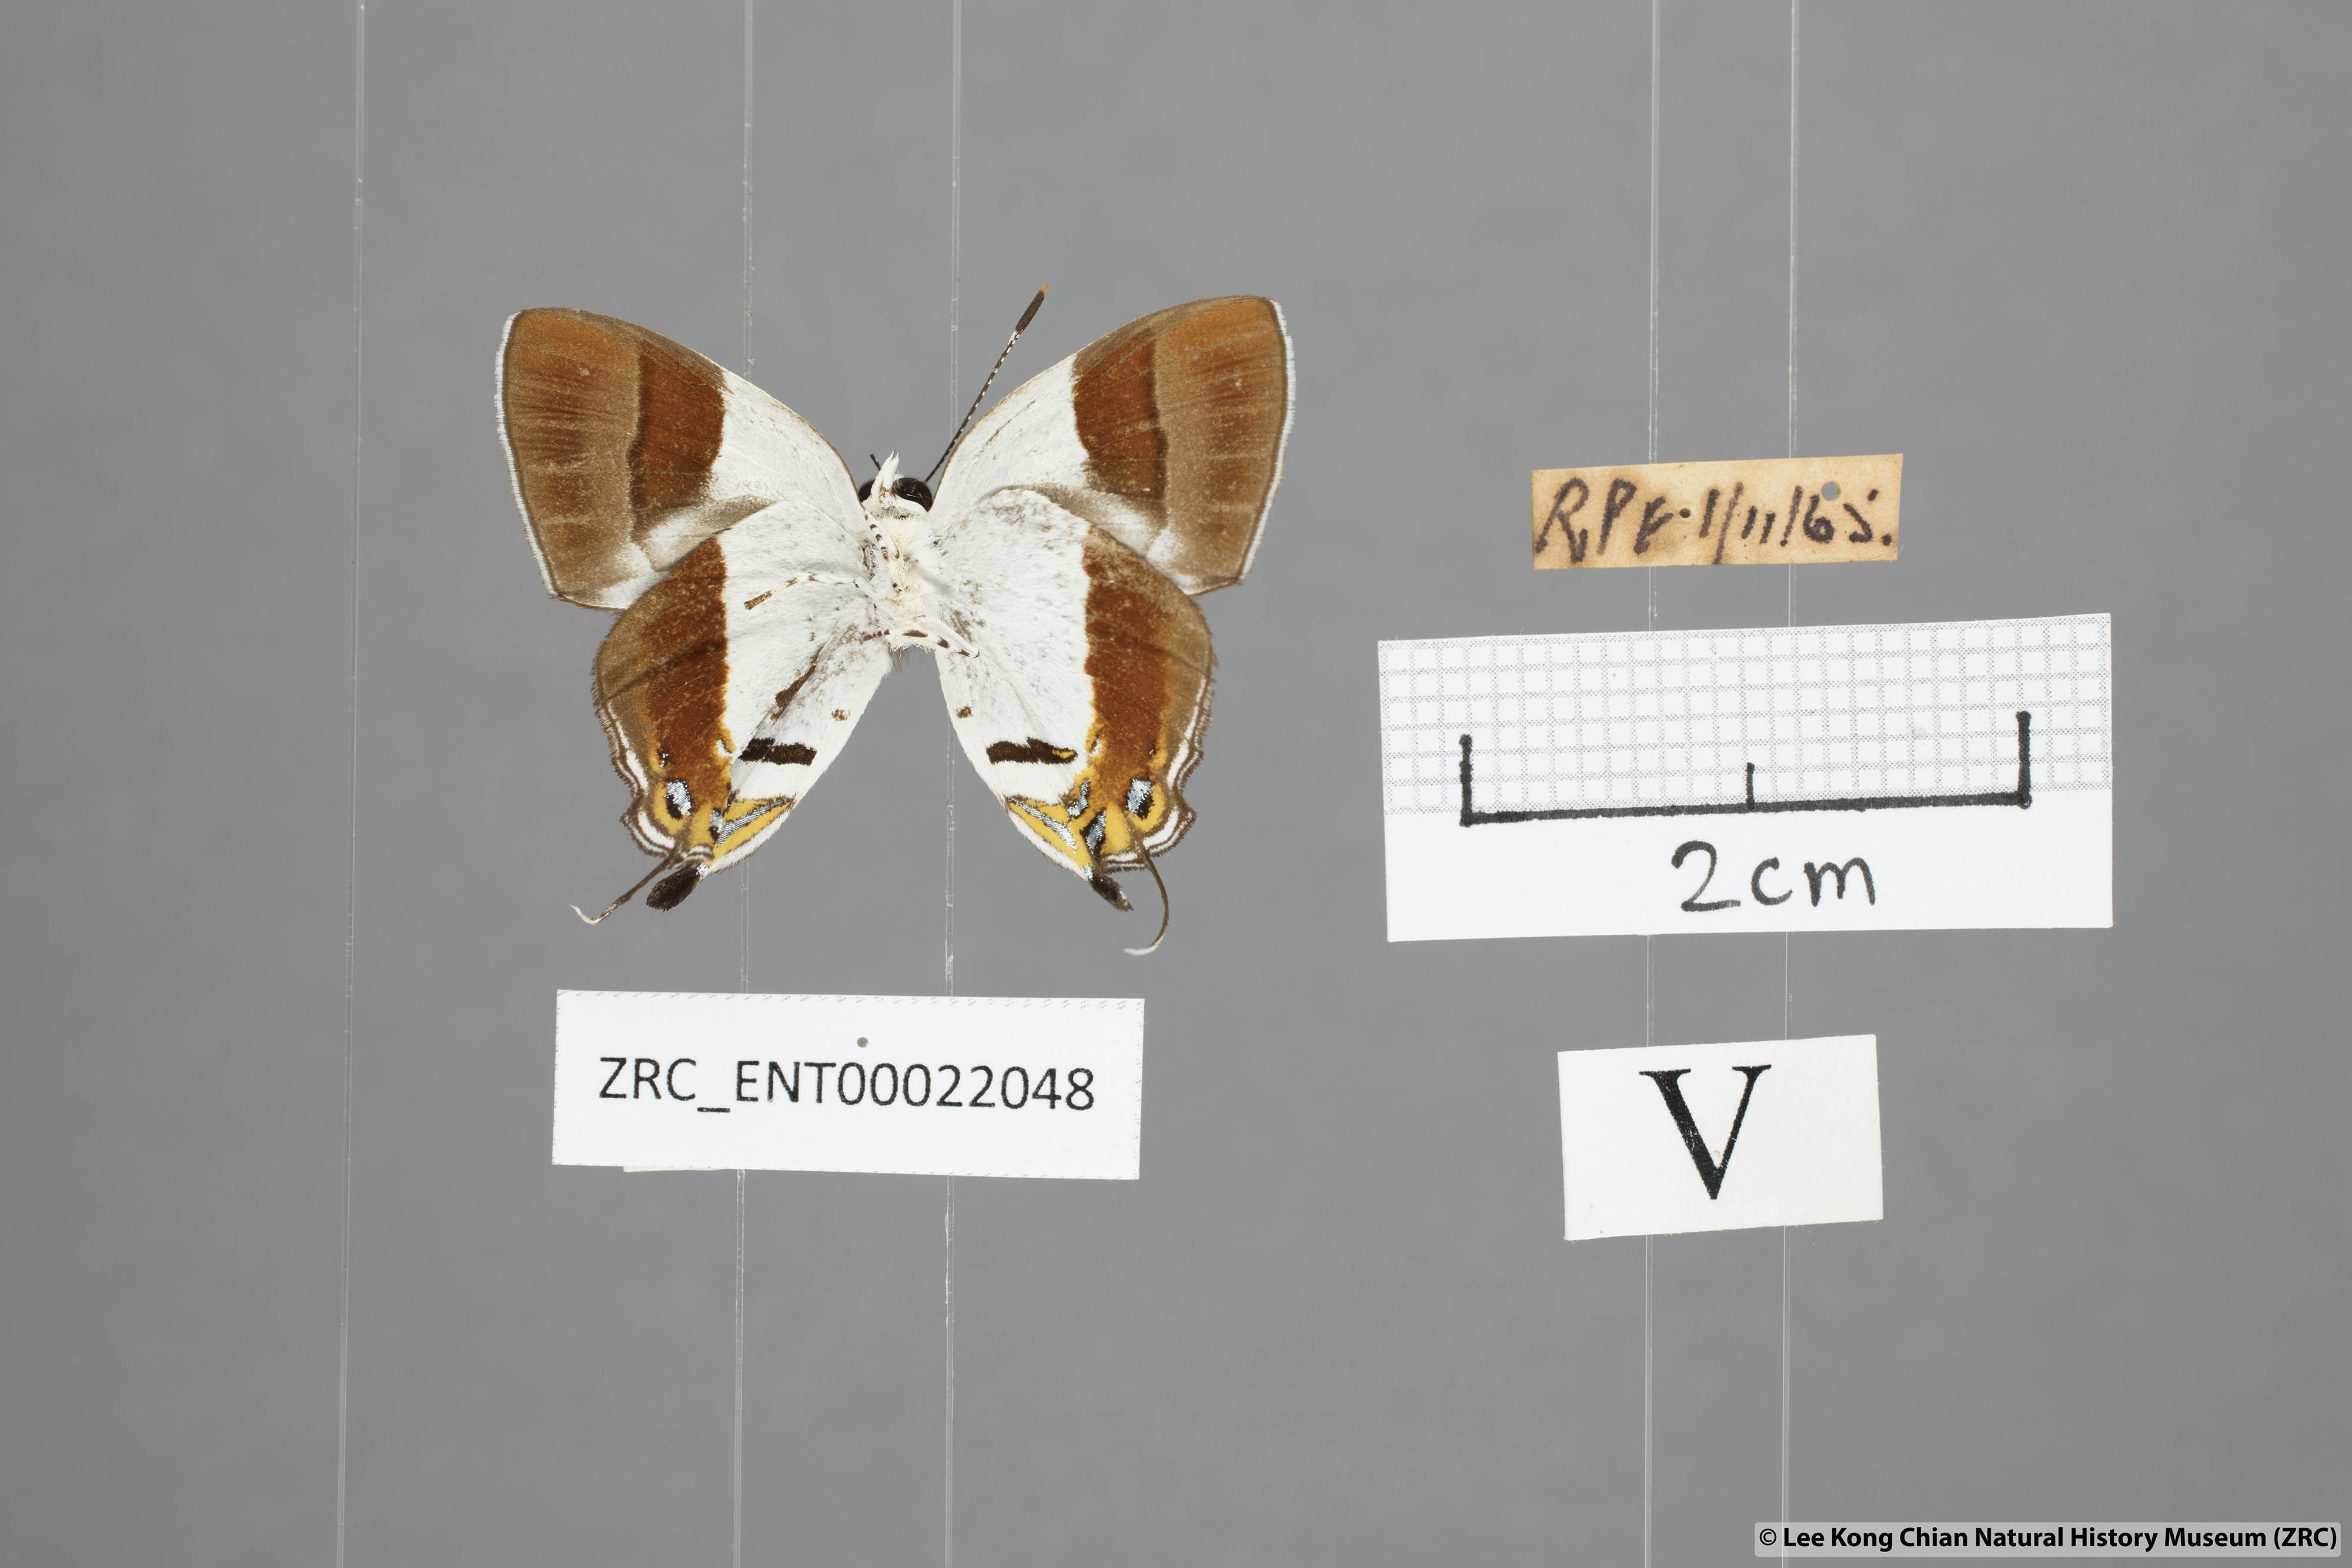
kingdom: Animalia
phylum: Arthropoda
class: Insecta
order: Lepidoptera
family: Lycaenidae
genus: Sithon
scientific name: Sithon nedymond
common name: Plush
